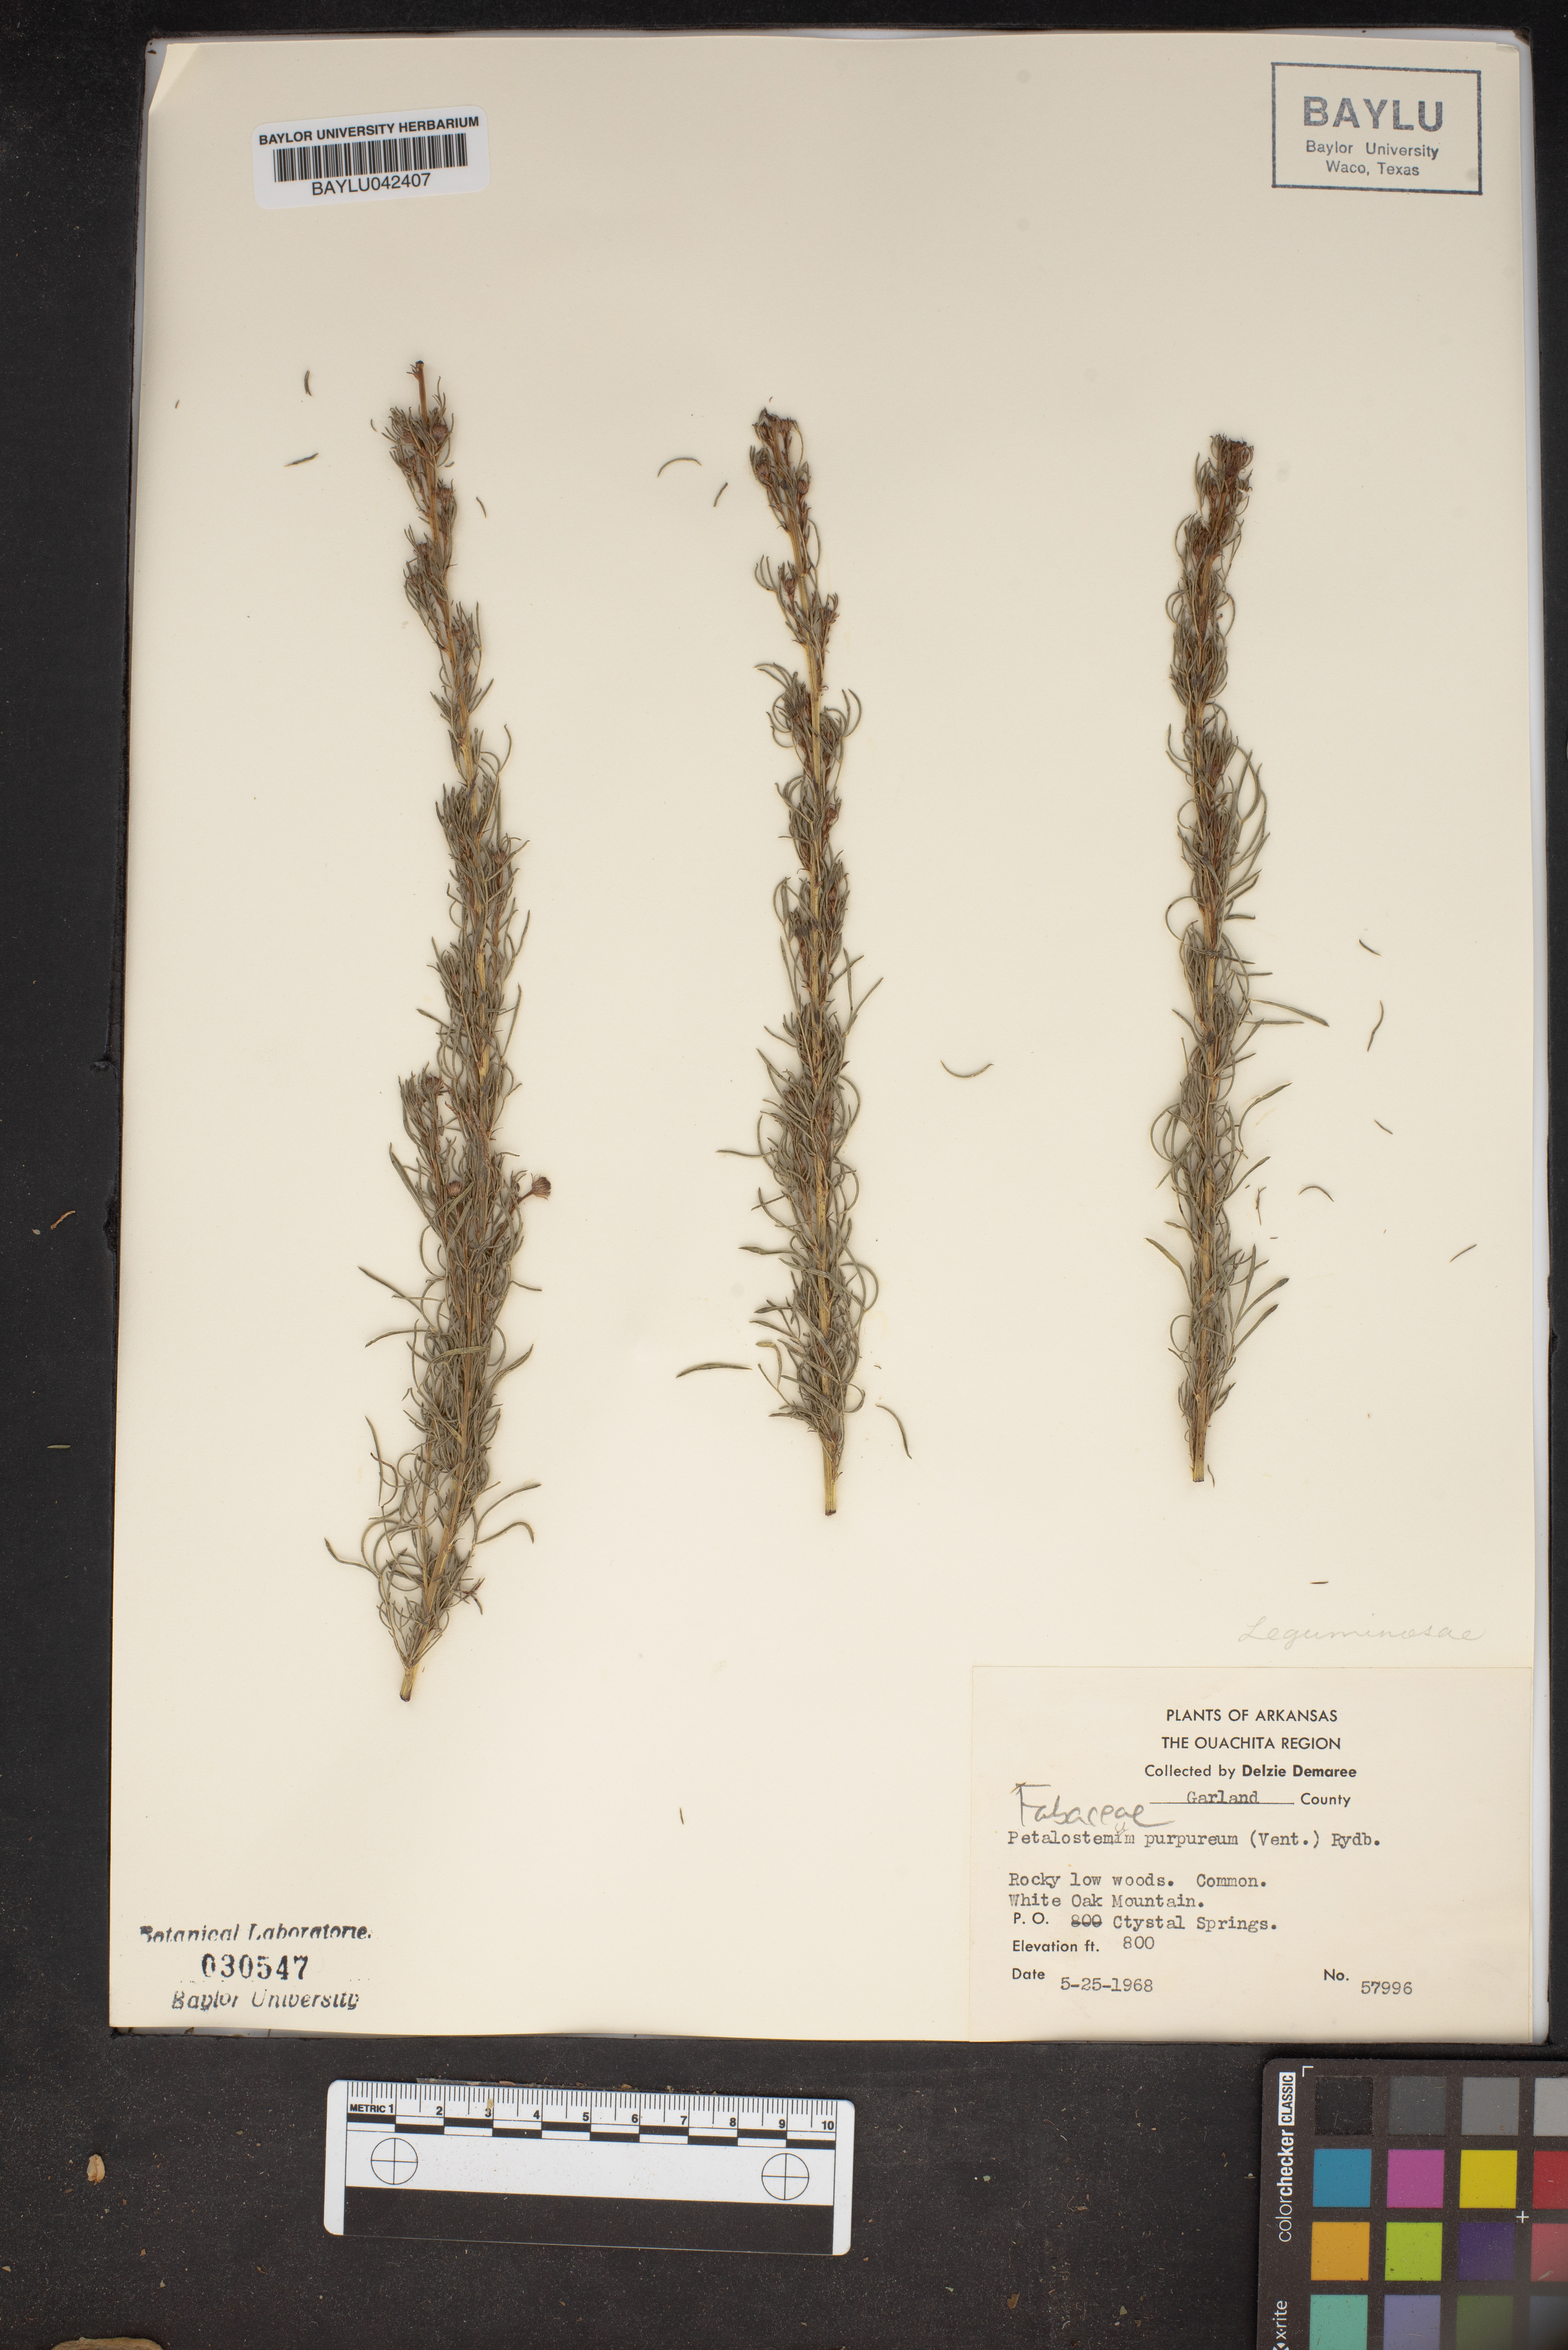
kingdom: Plantae
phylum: Tracheophyta
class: Magnoliopsida
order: Fabales
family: Fabaceae
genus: Dalea
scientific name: Dalea purpurea
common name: Purple prairie-clover
